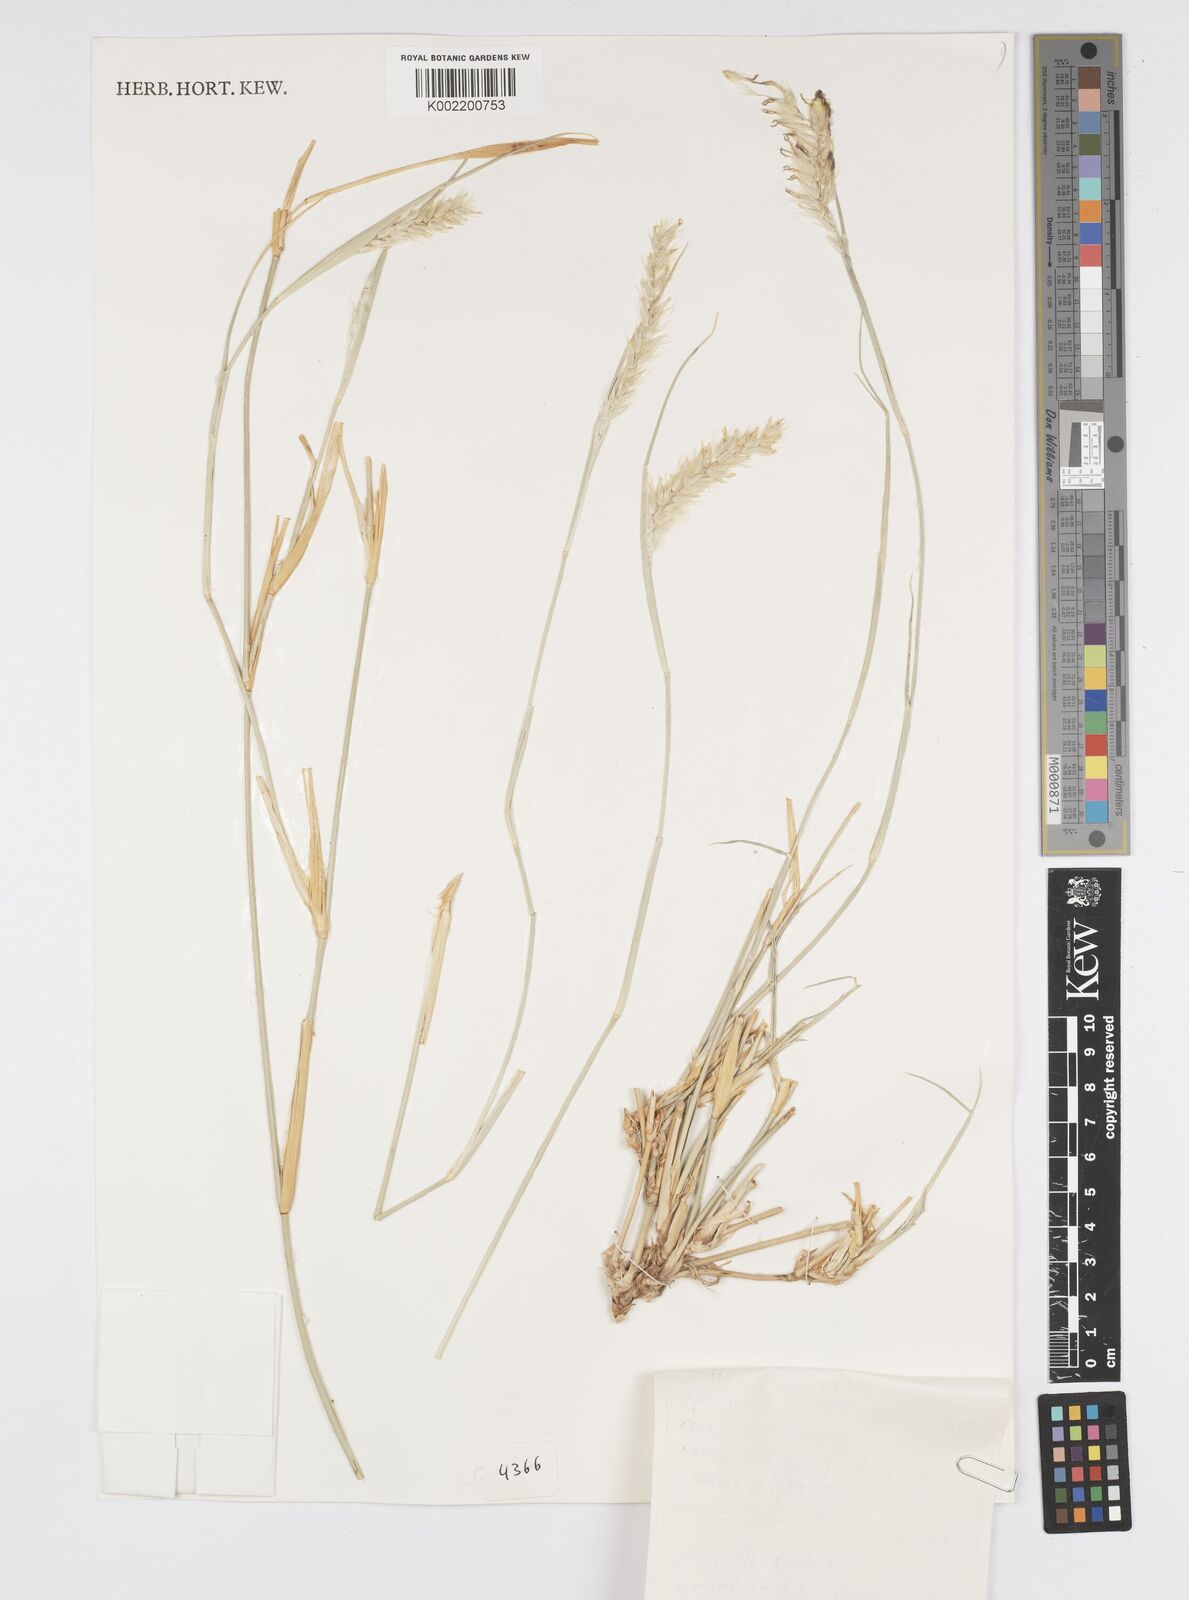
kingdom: Plantae
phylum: Tracheophyta
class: Liliopsida
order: Poales
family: Poaceae
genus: Cenchrus
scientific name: Cenchrus divisus
